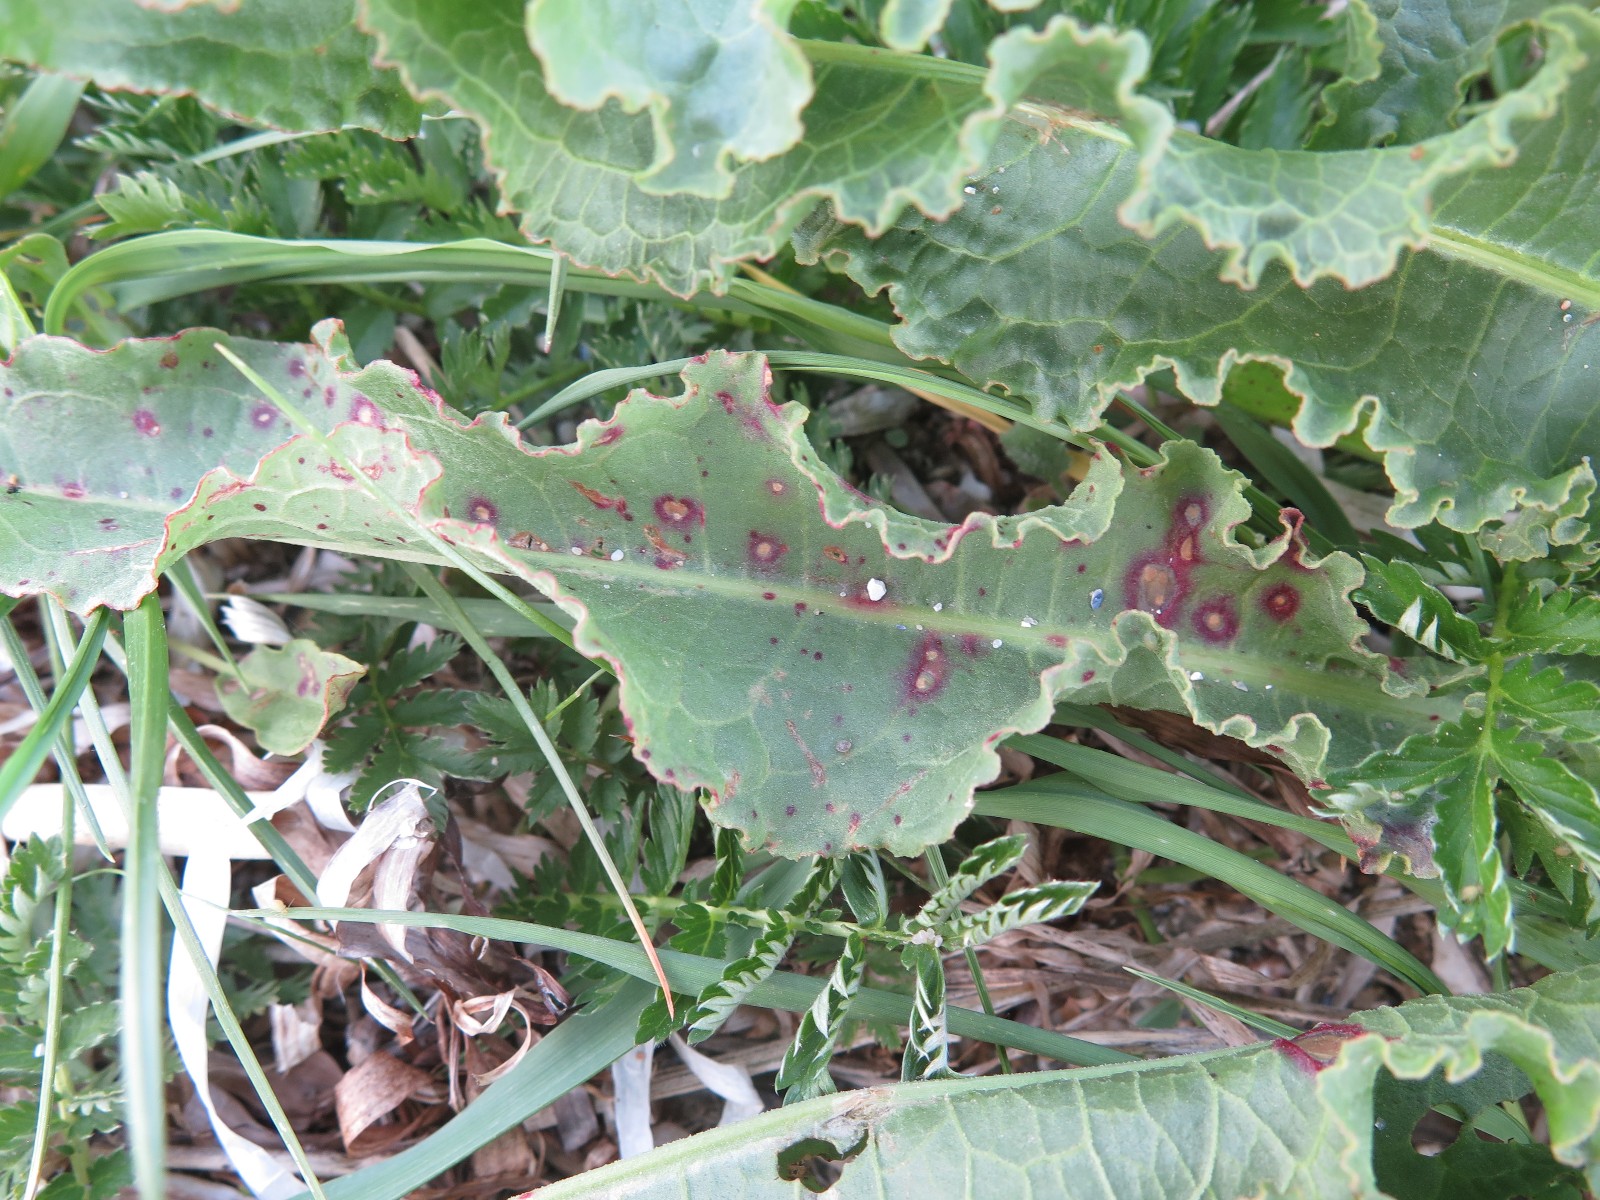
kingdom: Fungi
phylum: Basidiomycota
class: Pucciniomycetes
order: Pucciniales
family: Pucciniaceae
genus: Puccinia
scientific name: Puccinia phragmitis
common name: tagrør-tvecellerust
